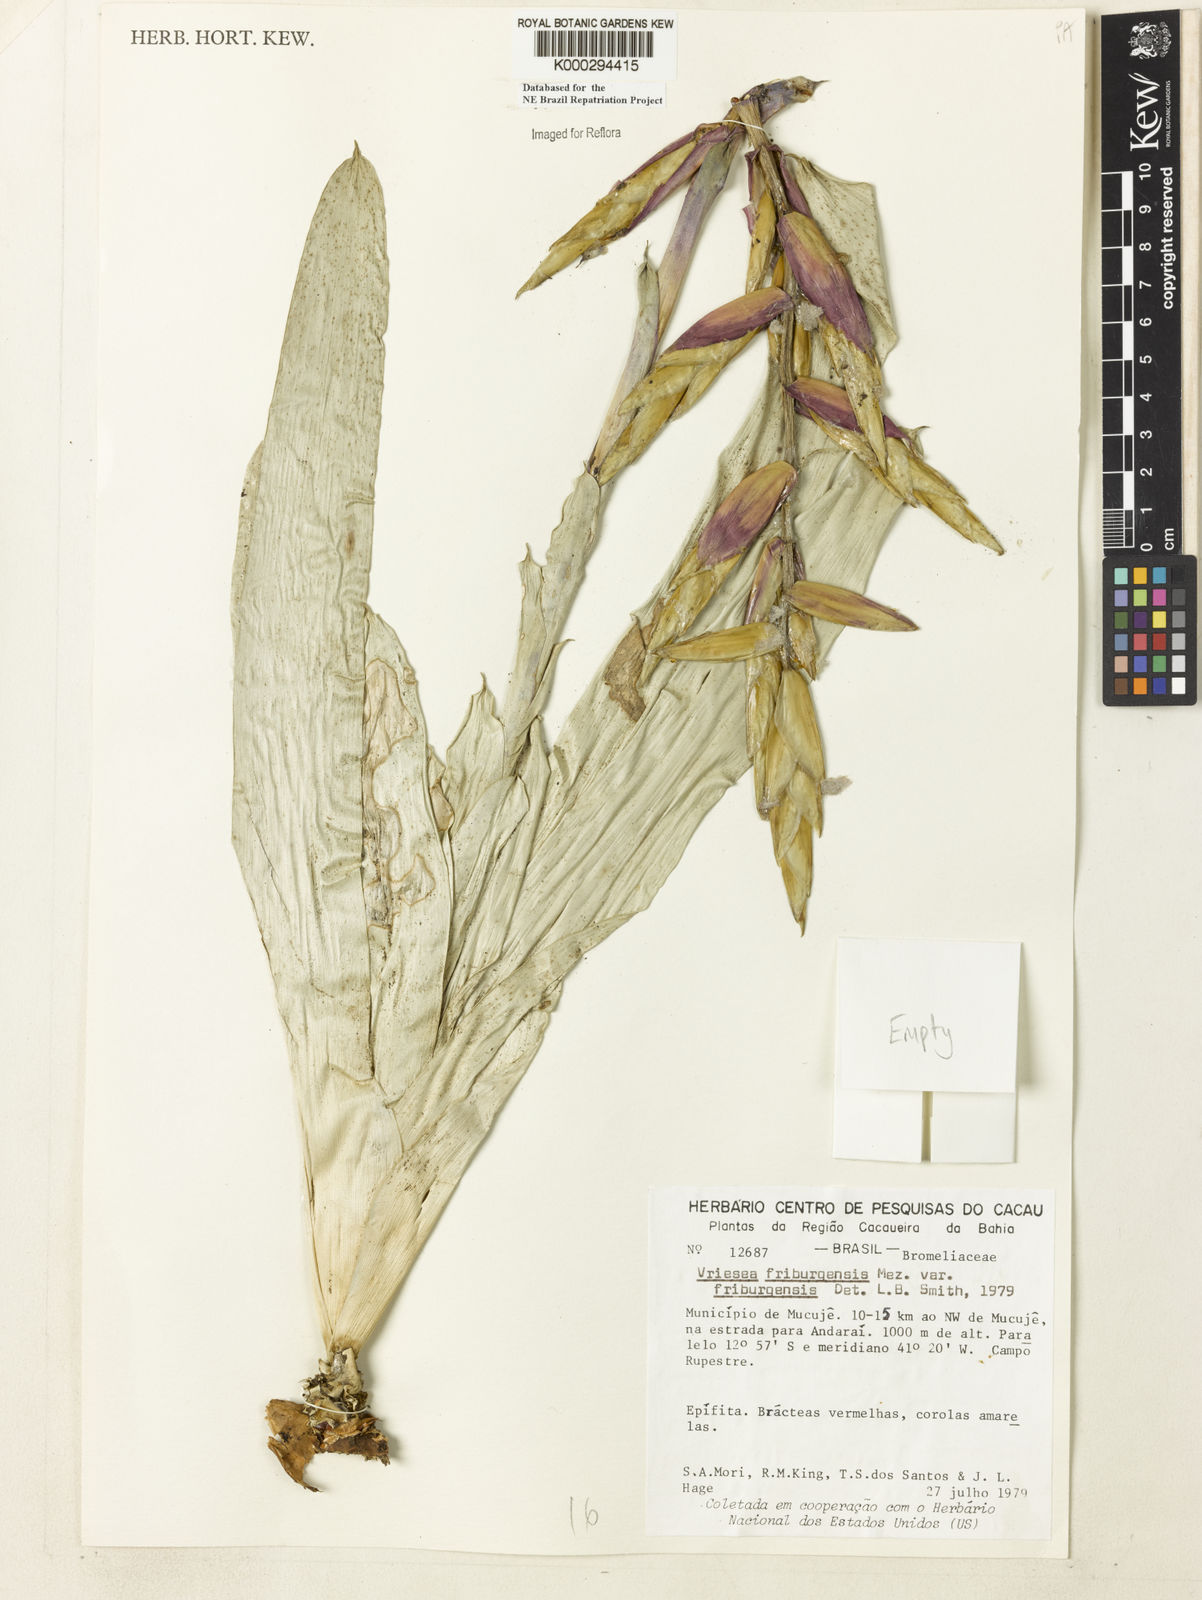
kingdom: Plantae
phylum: Tracheophyta
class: Liliopsida
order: Poales
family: Bromeliaceae
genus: Vriesea
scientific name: Vriesea friburgensis
